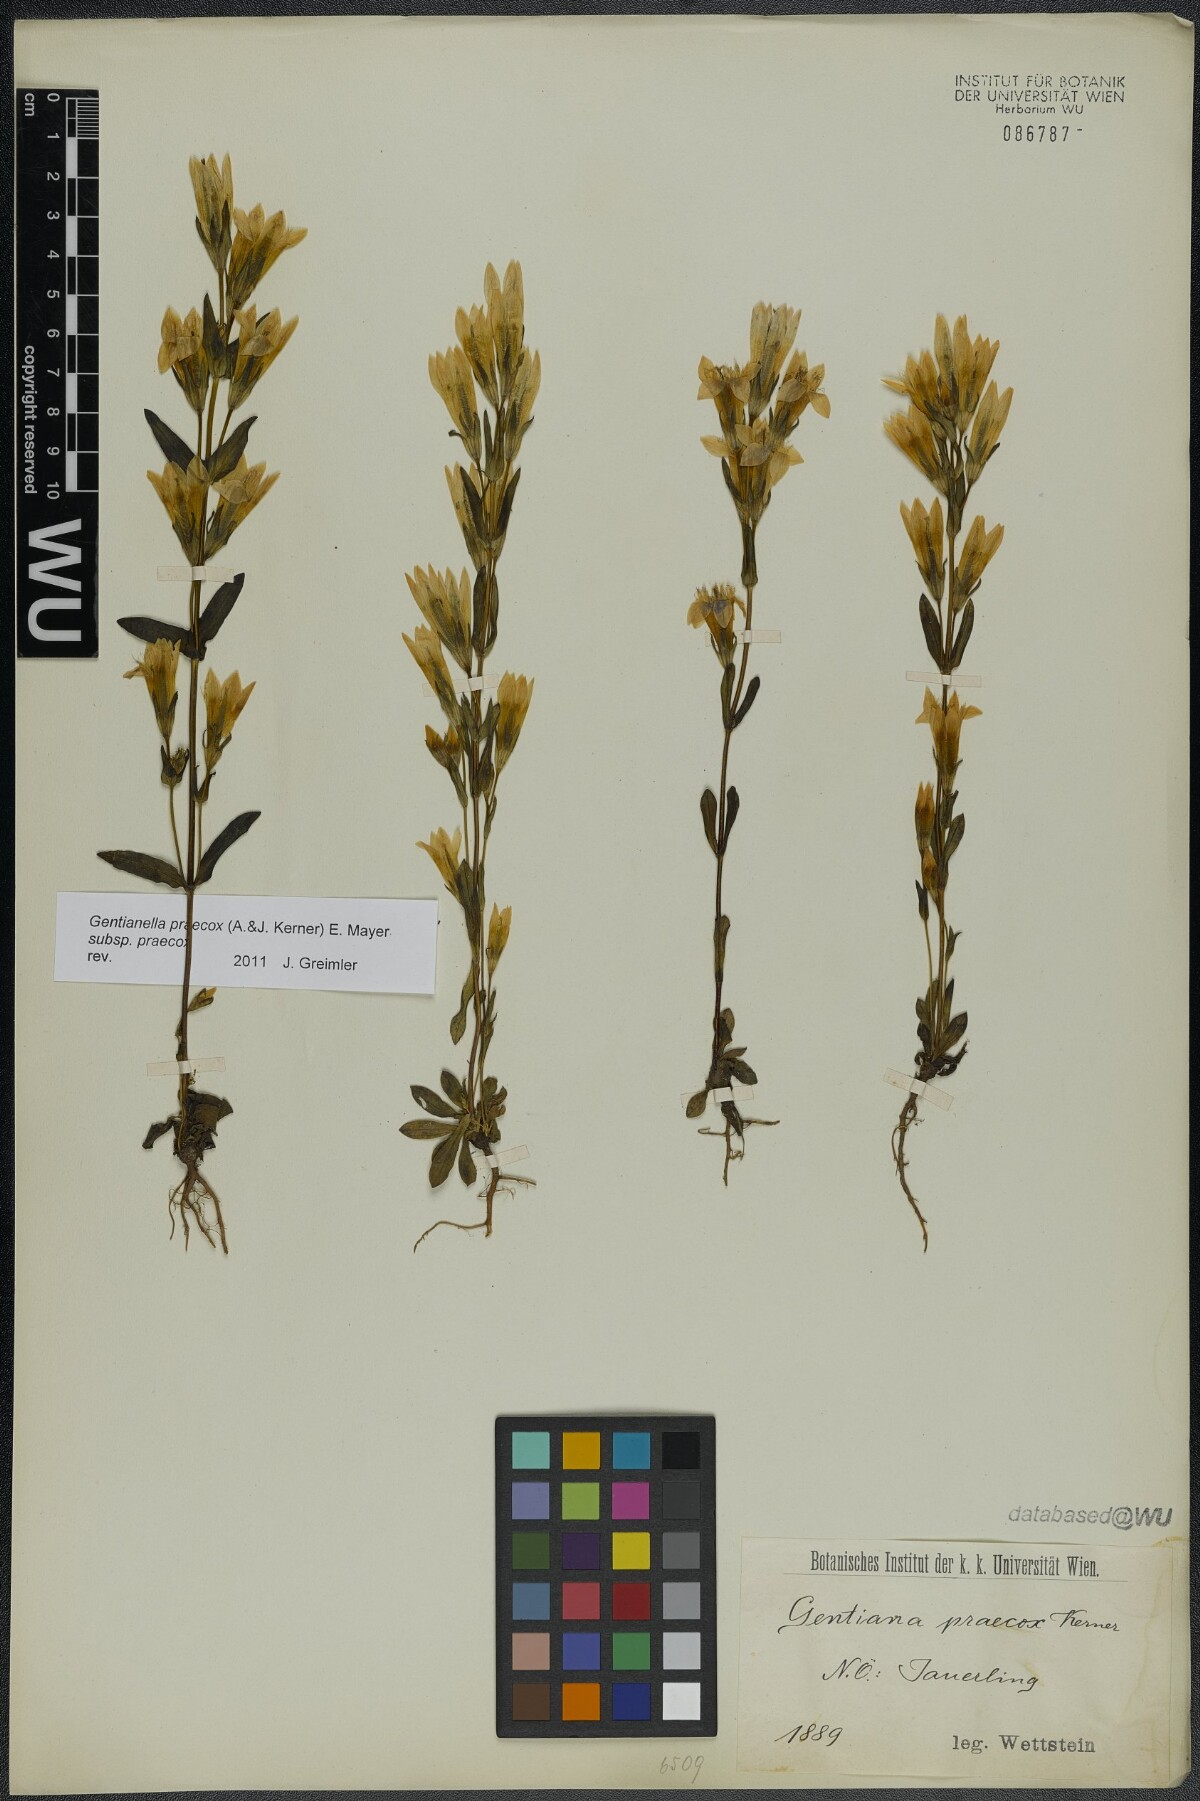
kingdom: Plantae
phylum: Tracheophyta
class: Magnoliopsida
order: Gentianales
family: Gentianaceae
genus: Gentianella
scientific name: Gentianella praecox
